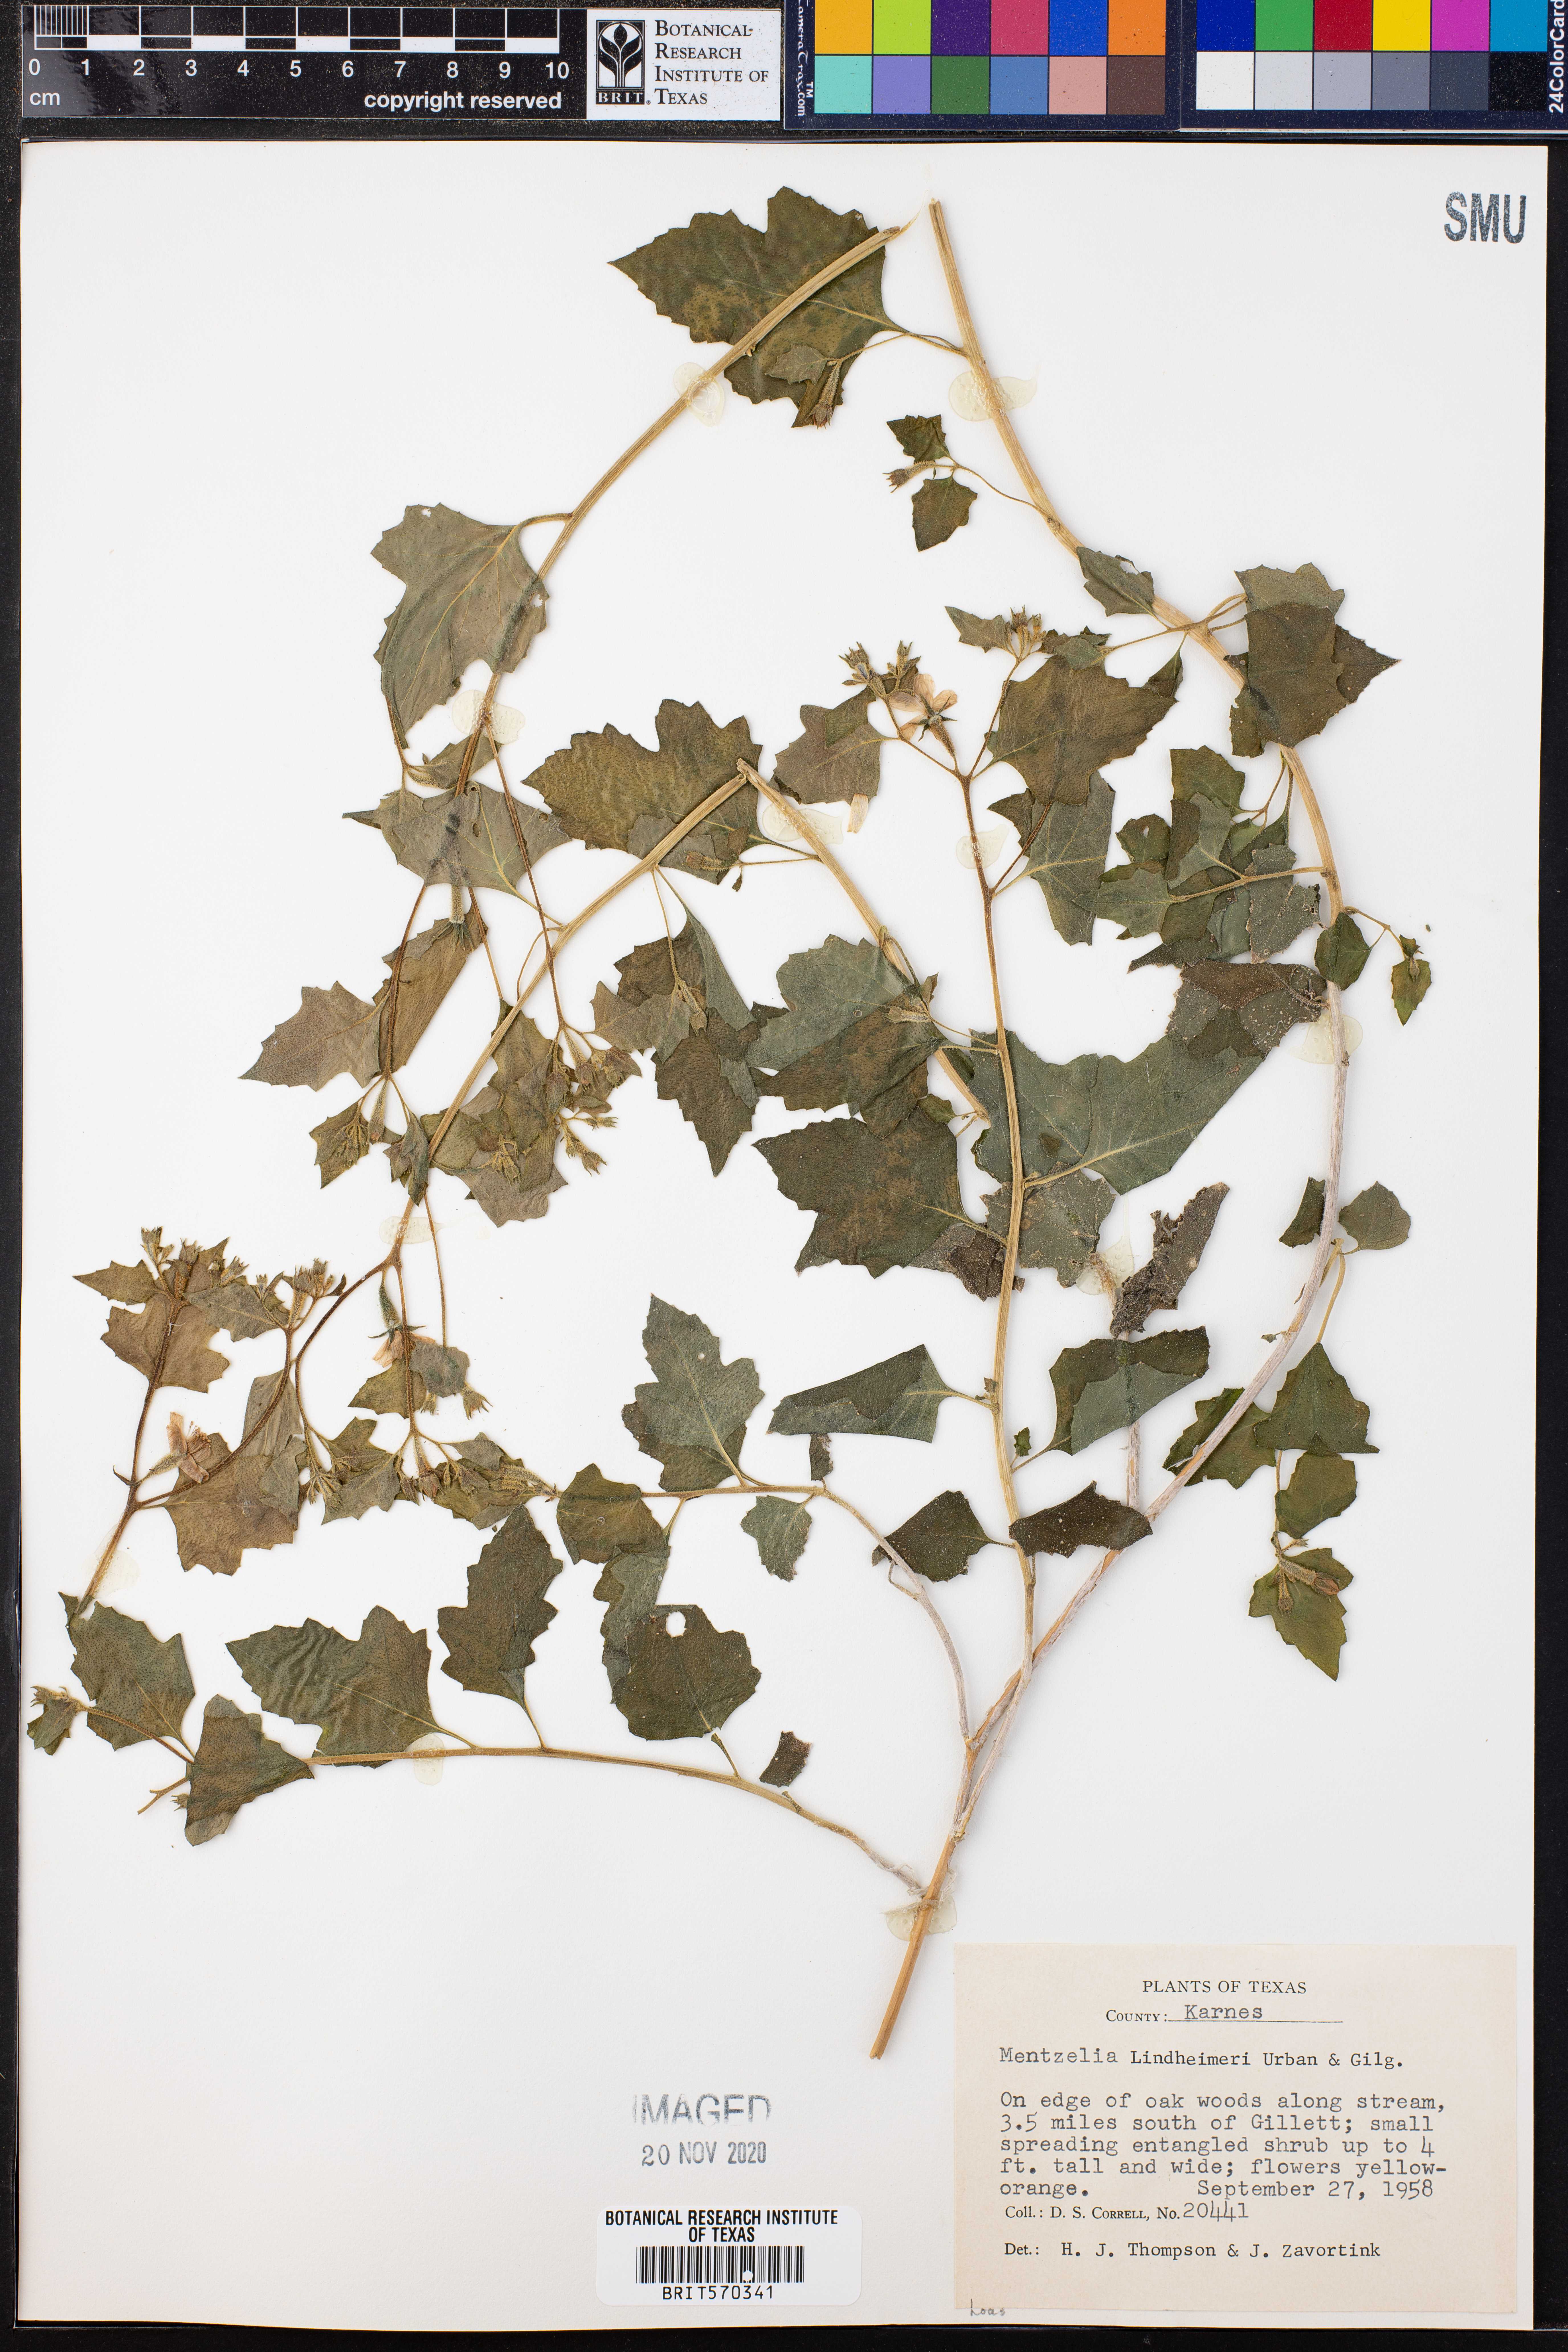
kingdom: Plantae
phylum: Tracheophyta
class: Magnoliopsida
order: Cornales
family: Loasaceae
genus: Mentzelia
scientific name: Mentzelia lindheimeri
